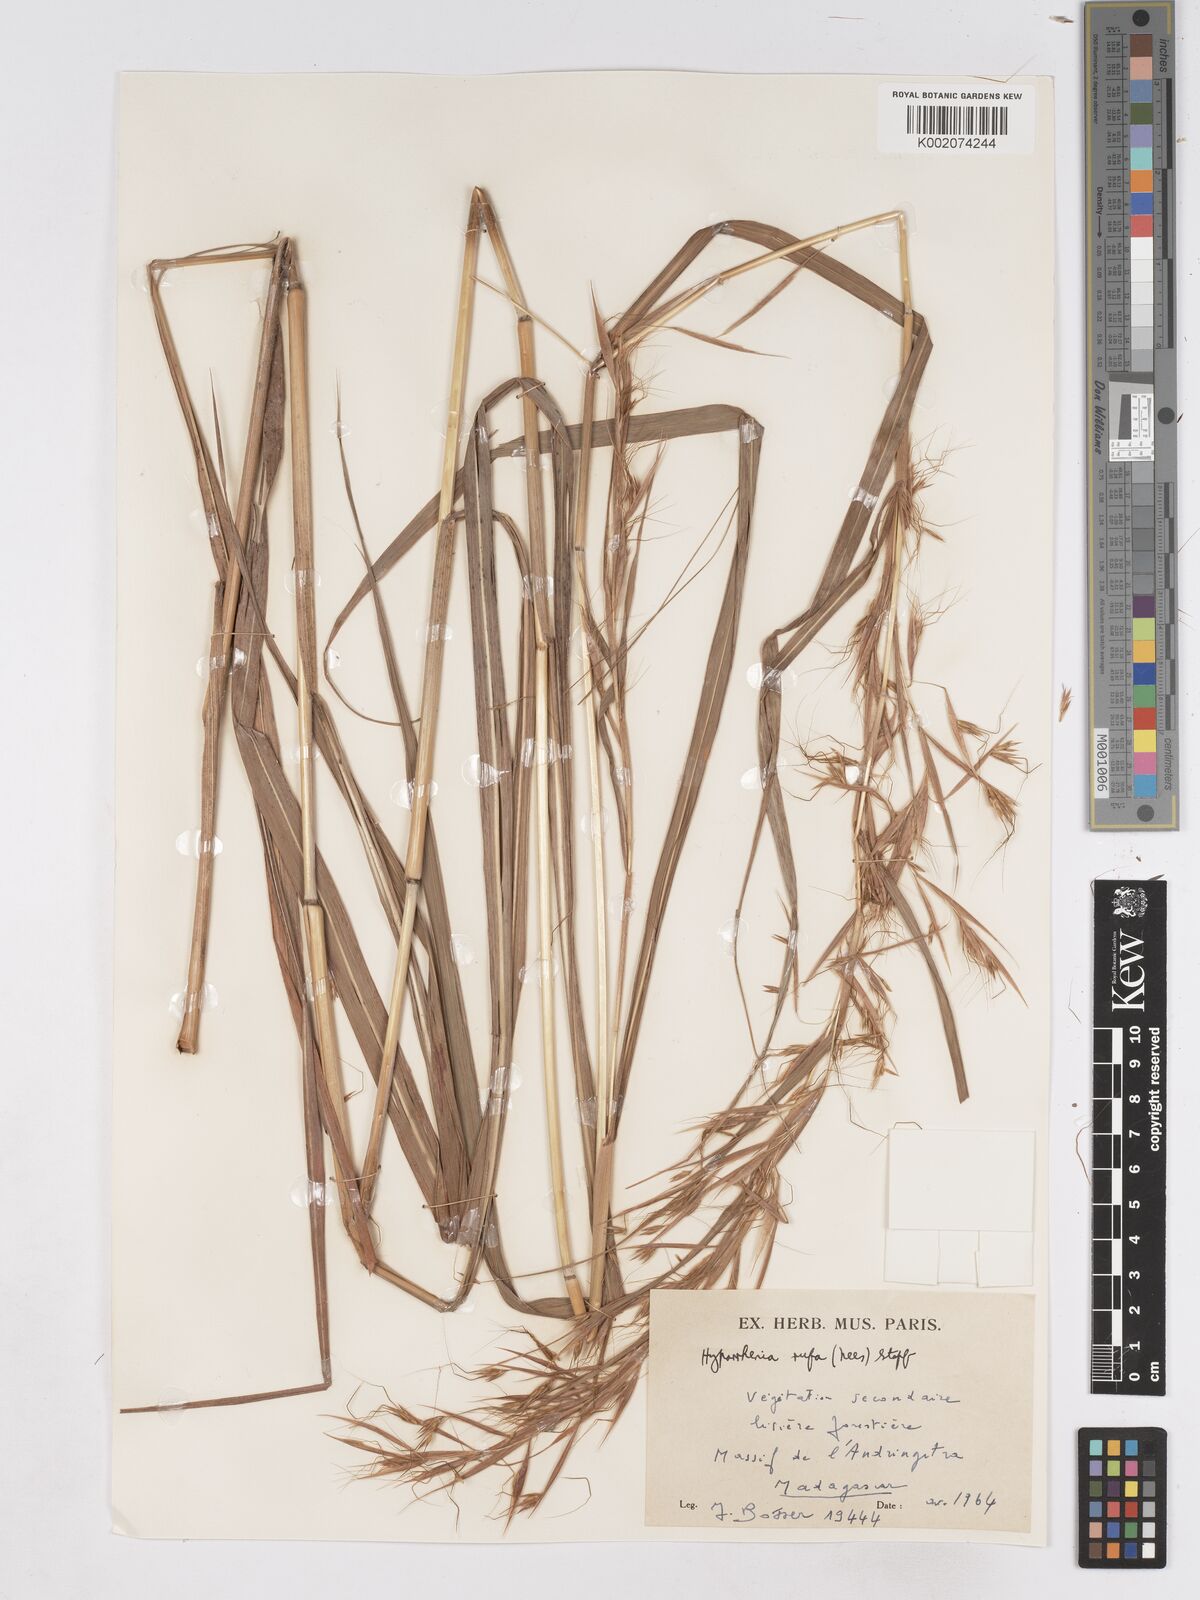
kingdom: Plantae
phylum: Tracheophyta
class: Liliopsida
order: Poales
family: Poaceae
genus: Hyparrhenia
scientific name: Hyparrhenia rufa
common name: Jaraguagrass
